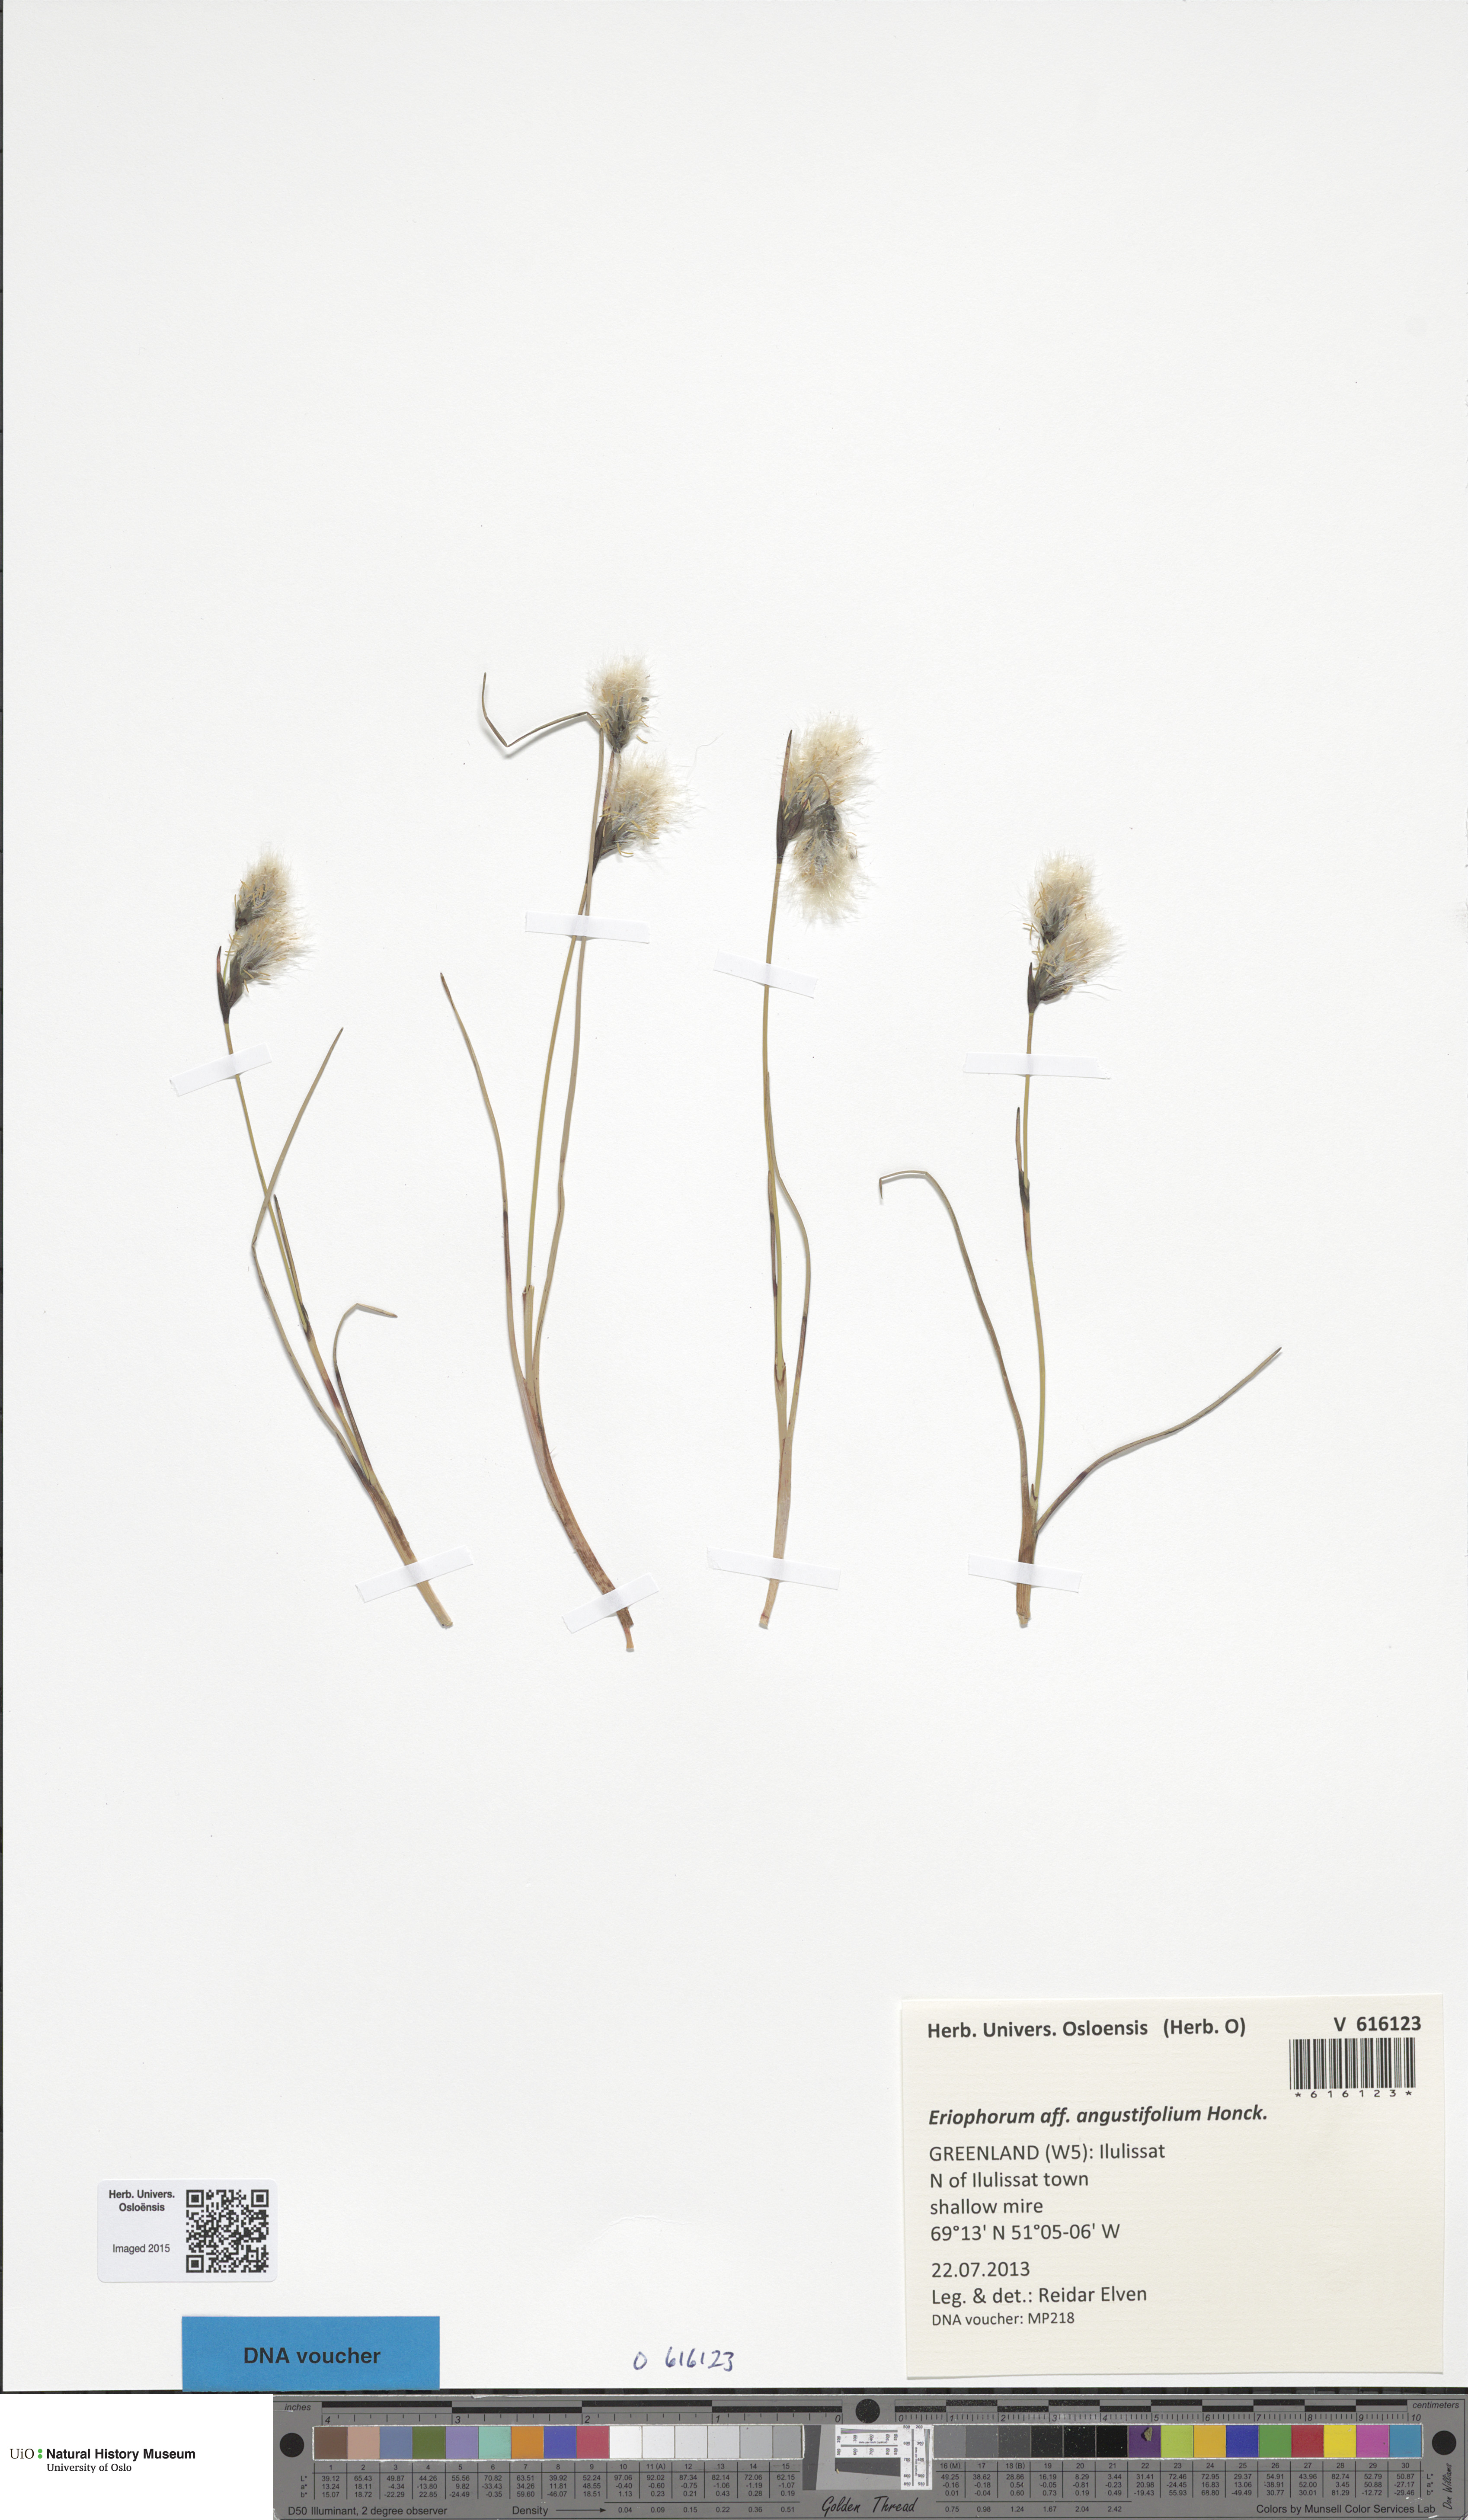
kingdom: Plantae
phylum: Tracheophyta
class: Liliopsida
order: Poales
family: Cyperaceae
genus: Eriophorum
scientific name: Eriophorum angustifolium
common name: Common cottongrass
